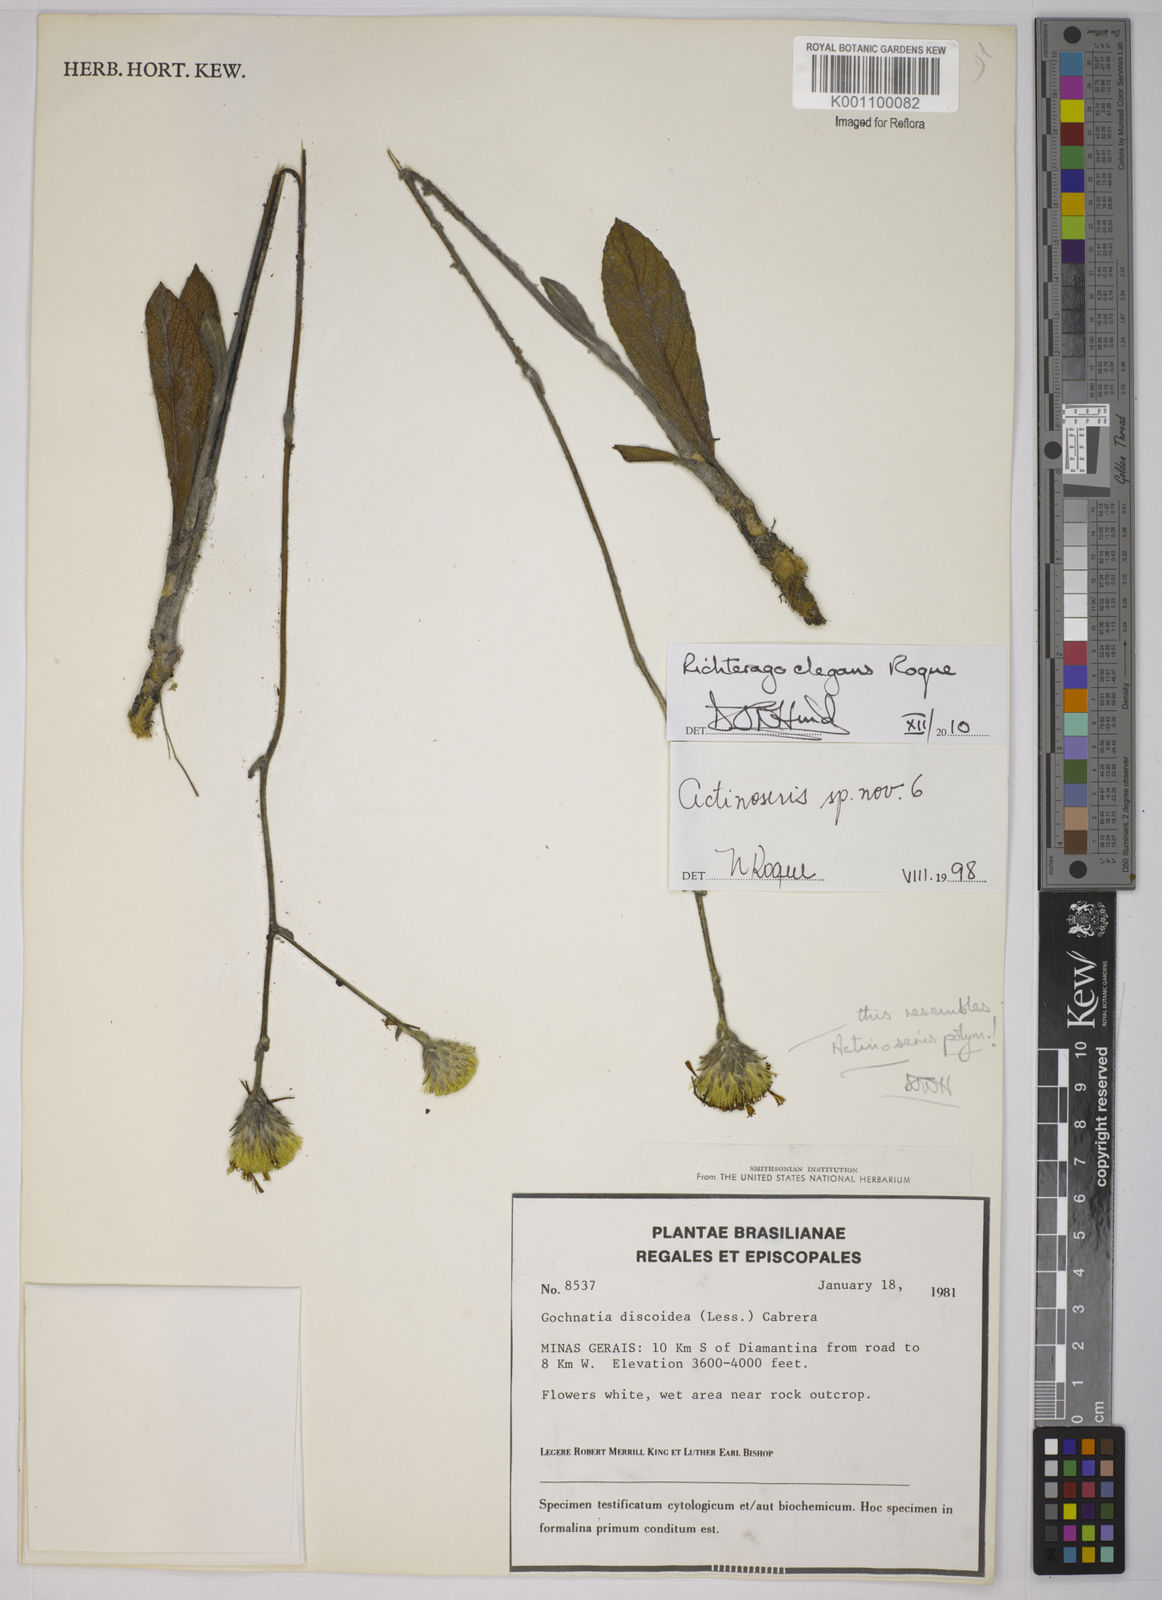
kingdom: Plantae
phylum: Tracheophyta
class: Magnoliopsida
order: Asterales
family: Asteraceae
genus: Richterago
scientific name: Richterago elegans
